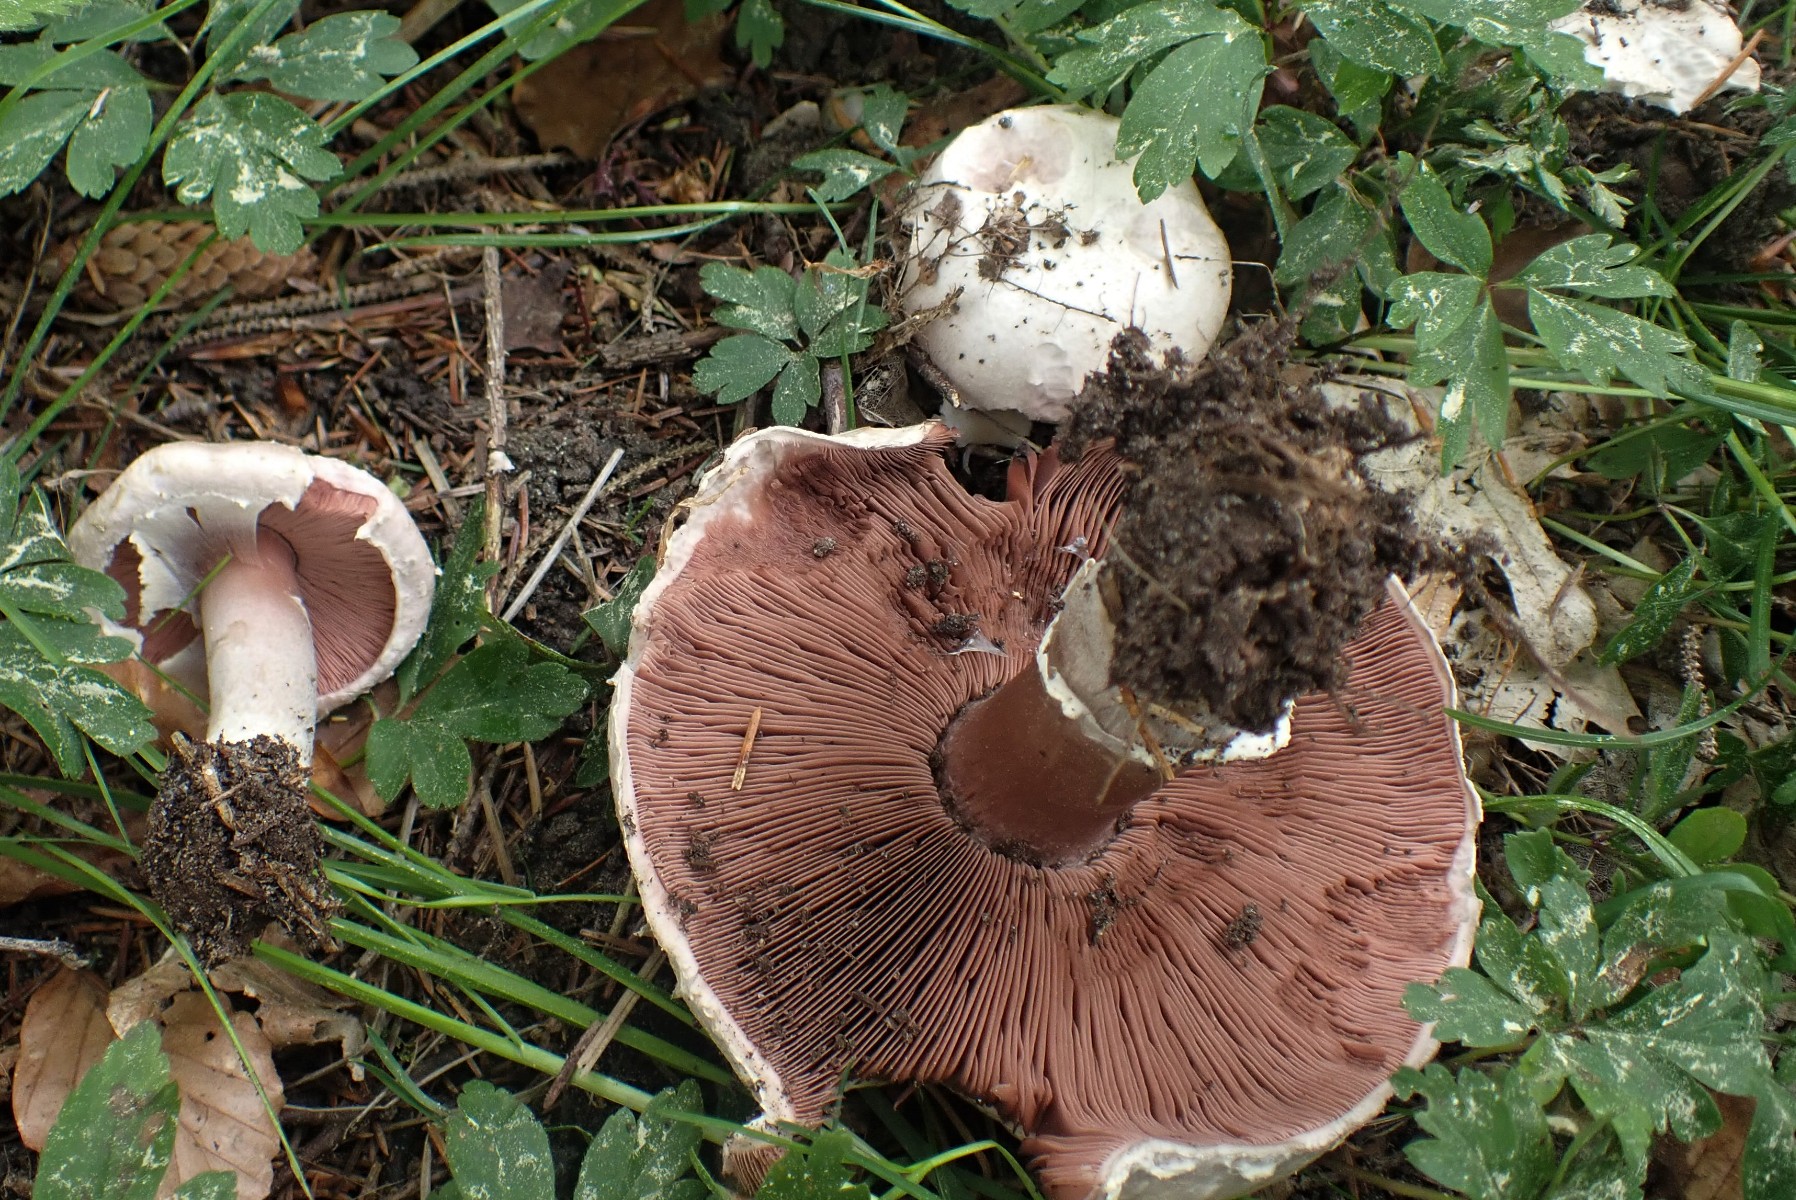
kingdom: Fungi
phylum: Basidiomycota
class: Agaricomycetes
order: Agaricales
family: Agaricaceae
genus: Agaricus
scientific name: Agaricus campestris
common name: mark-champignon
